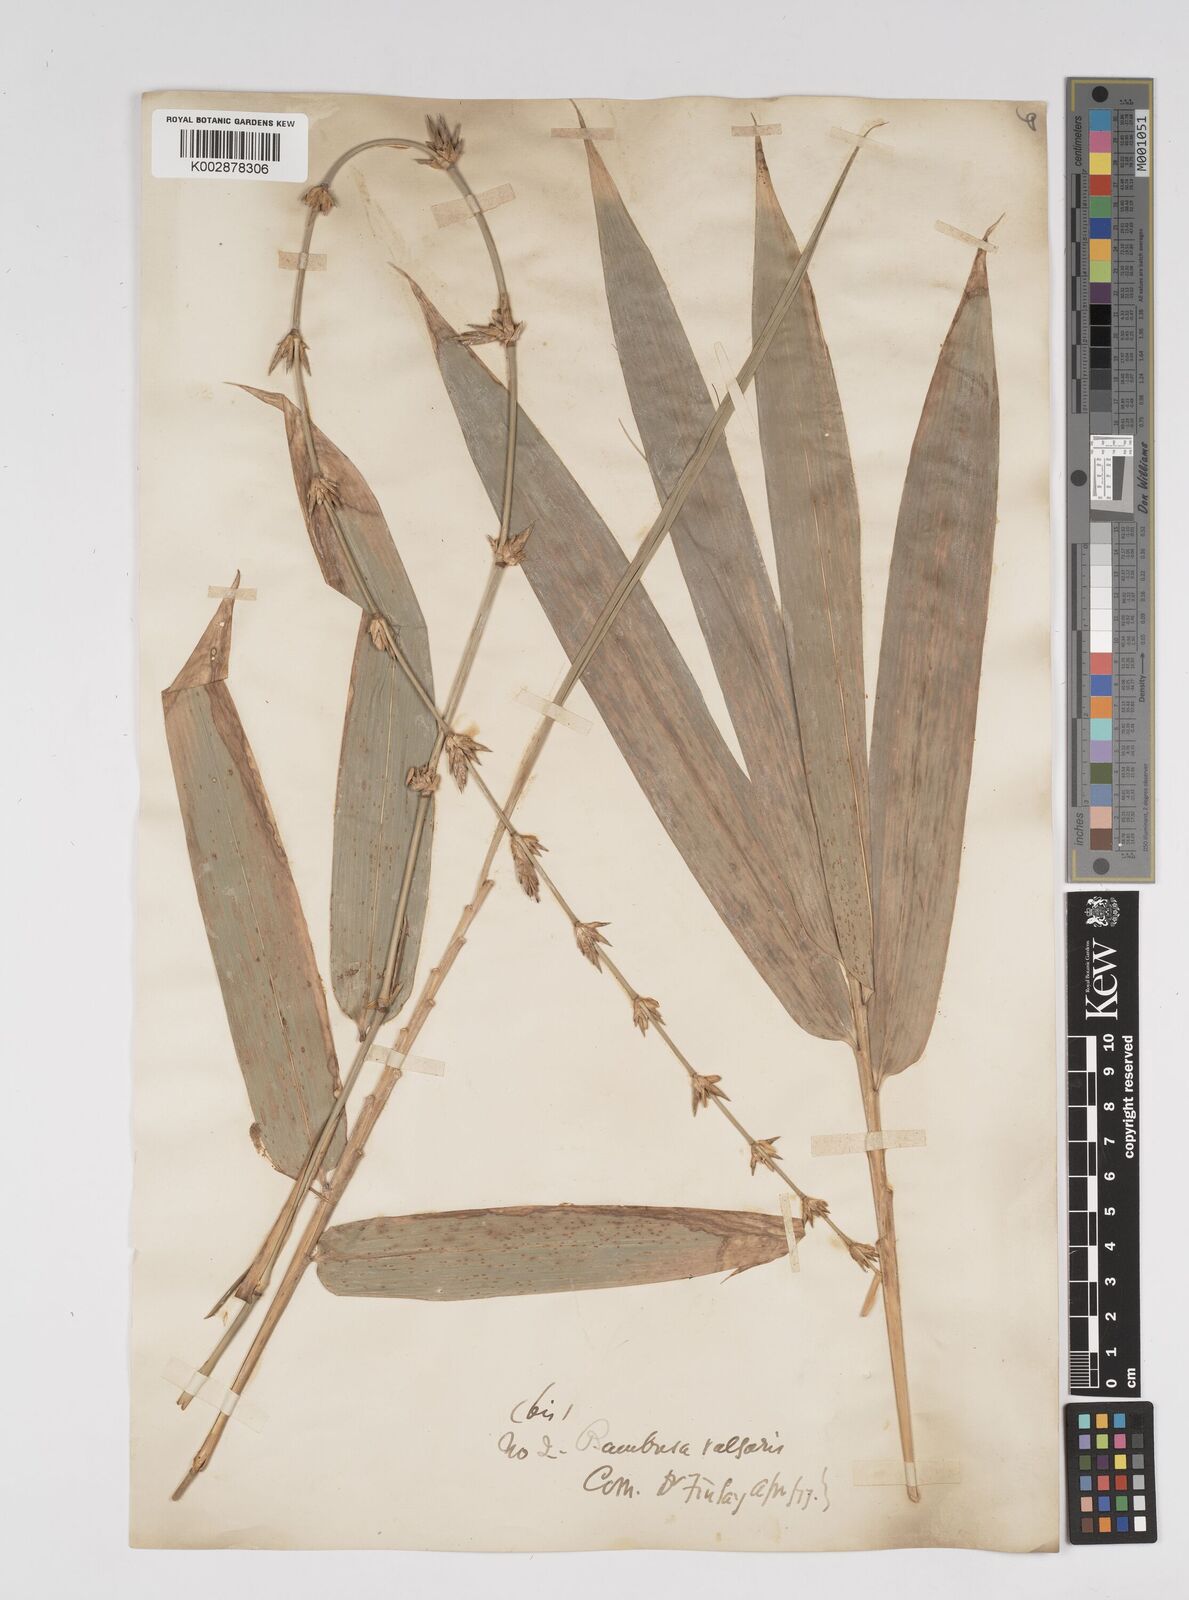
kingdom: Plantae
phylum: Tracheophyta
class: Liliopsida
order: Poales
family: Poaceae
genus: Bambusa
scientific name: Bambusa vulgaris
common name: Common bamboo
